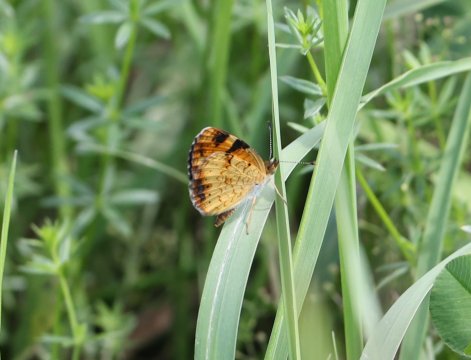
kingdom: Animalia
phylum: Arthropoda
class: Insecta
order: Lepidoptera
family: Nymphalidae
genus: Phyciodes
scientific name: Phyciodes
